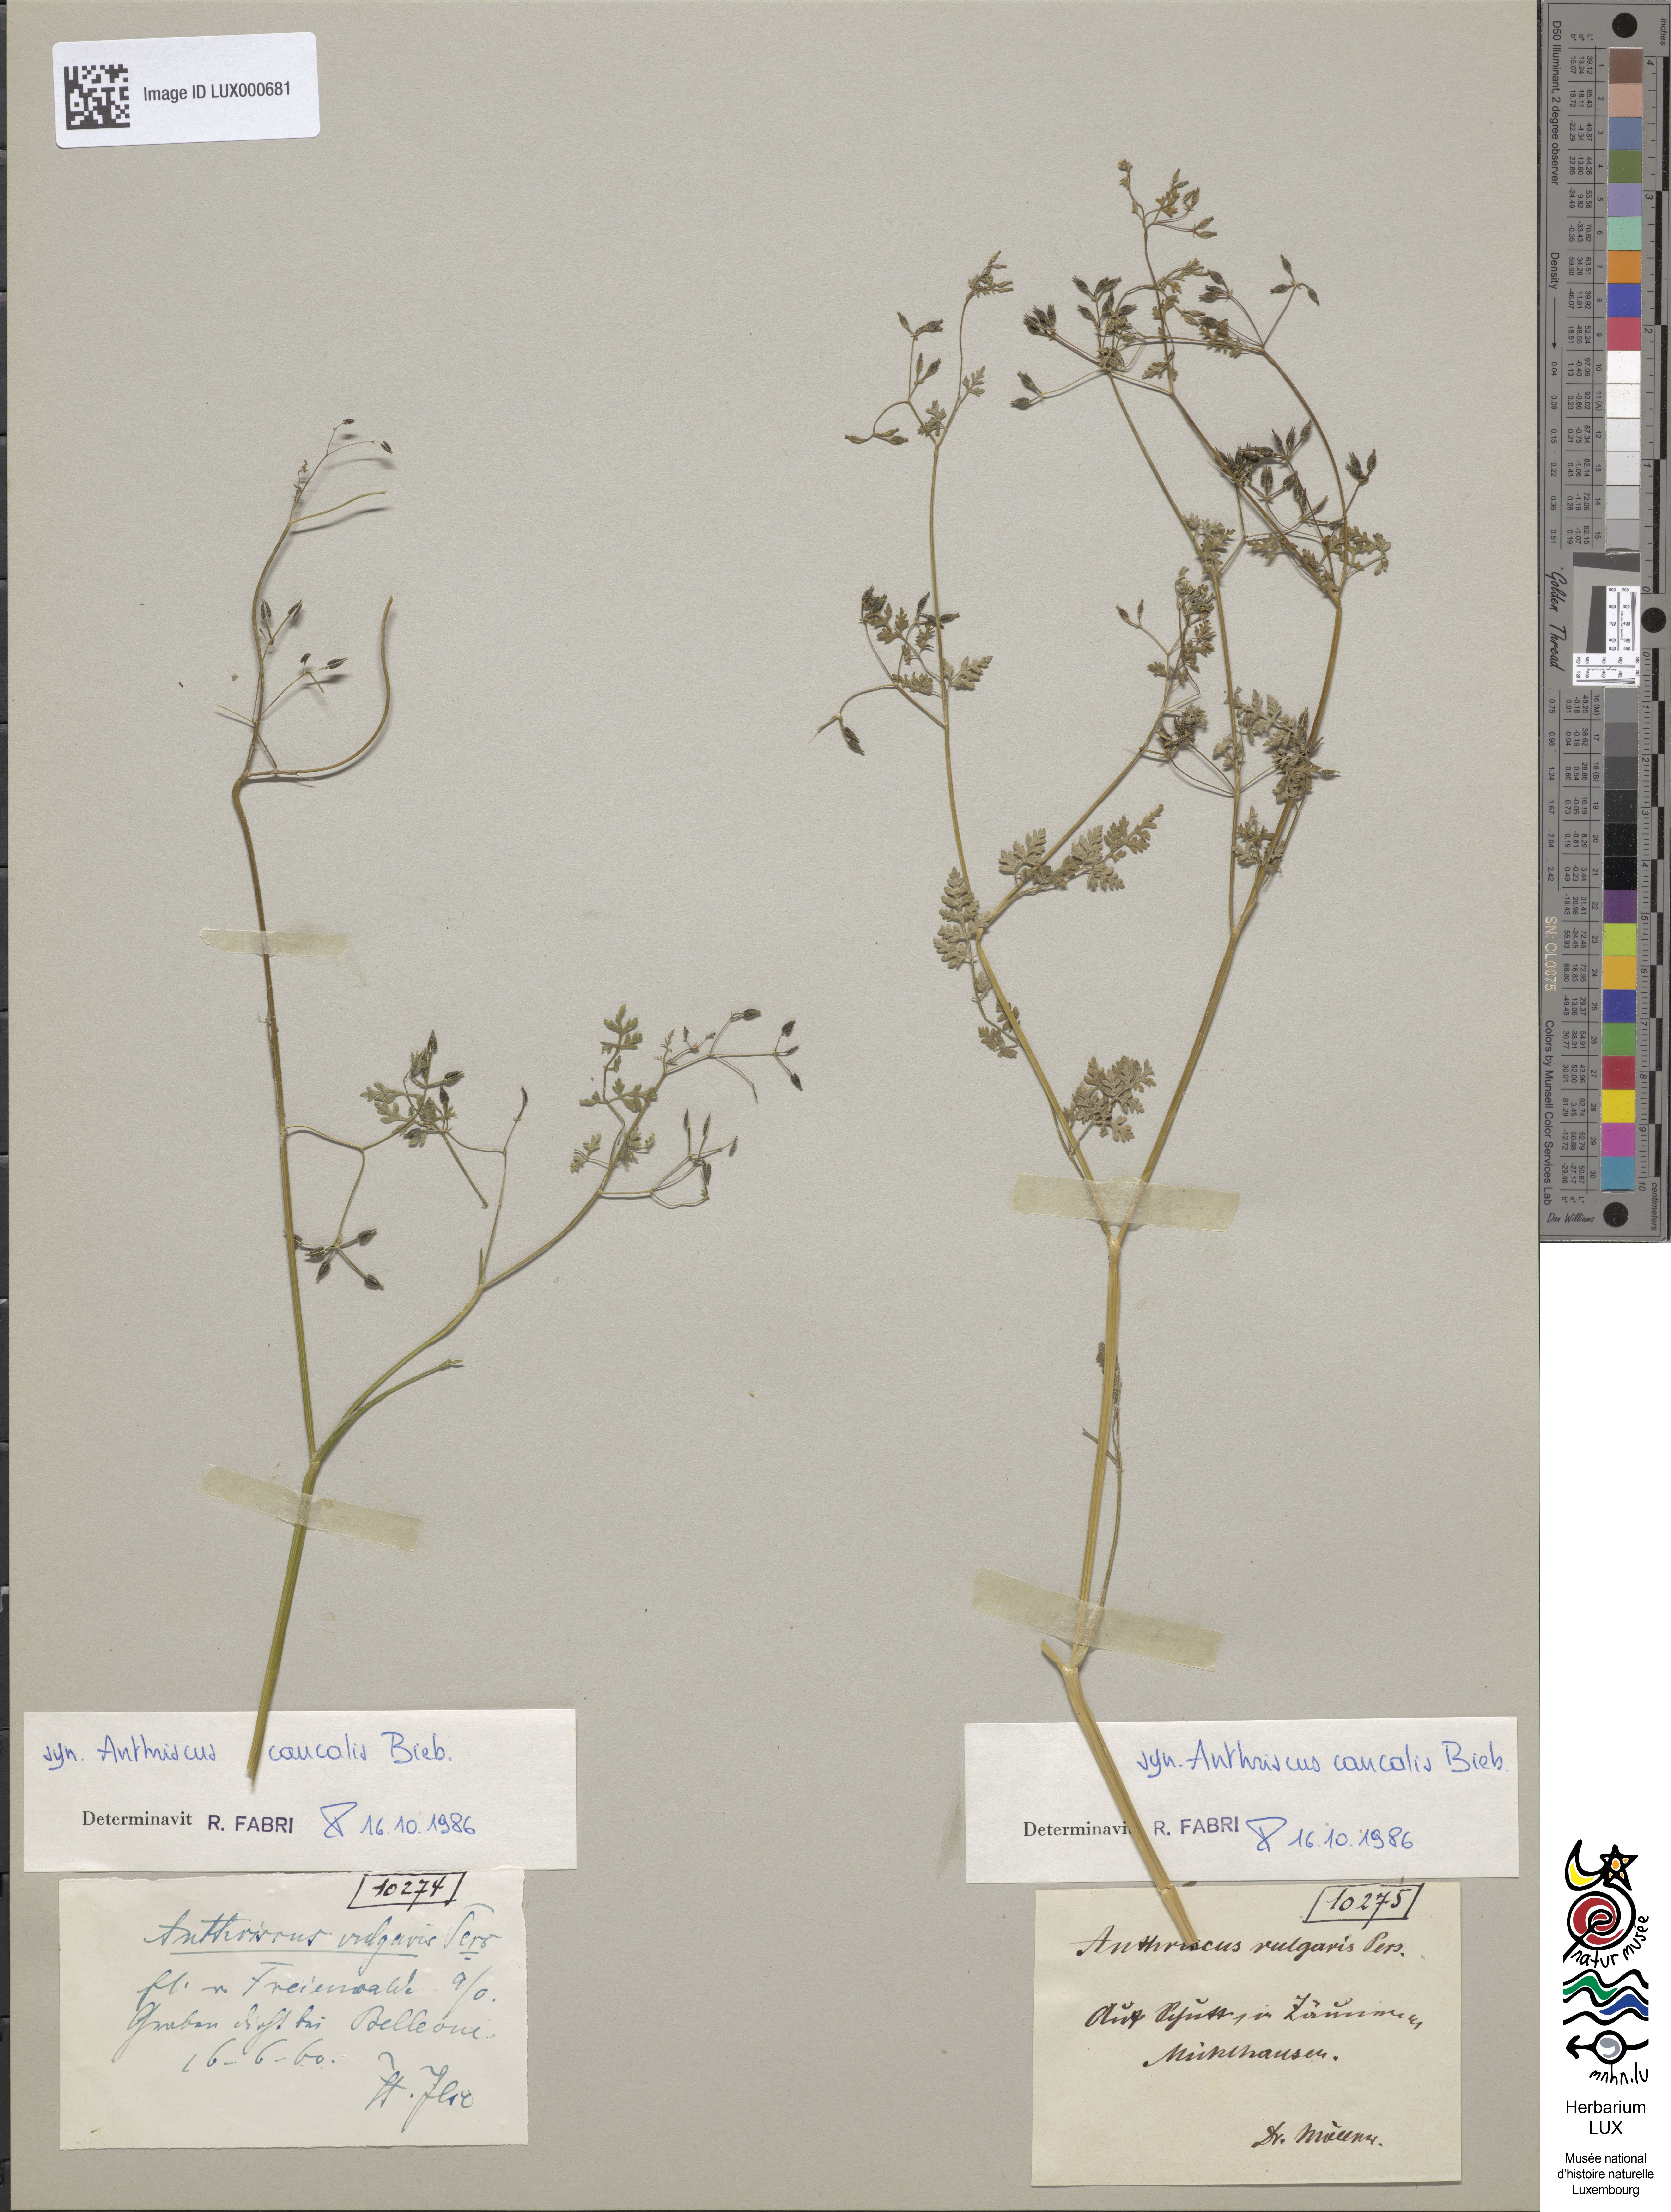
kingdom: Plantae
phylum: Tracheophyta
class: Magnoliopsida
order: Apiales
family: Apiaceae
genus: Anthriscus
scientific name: Anthriscus caucalis
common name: Bur chervil
